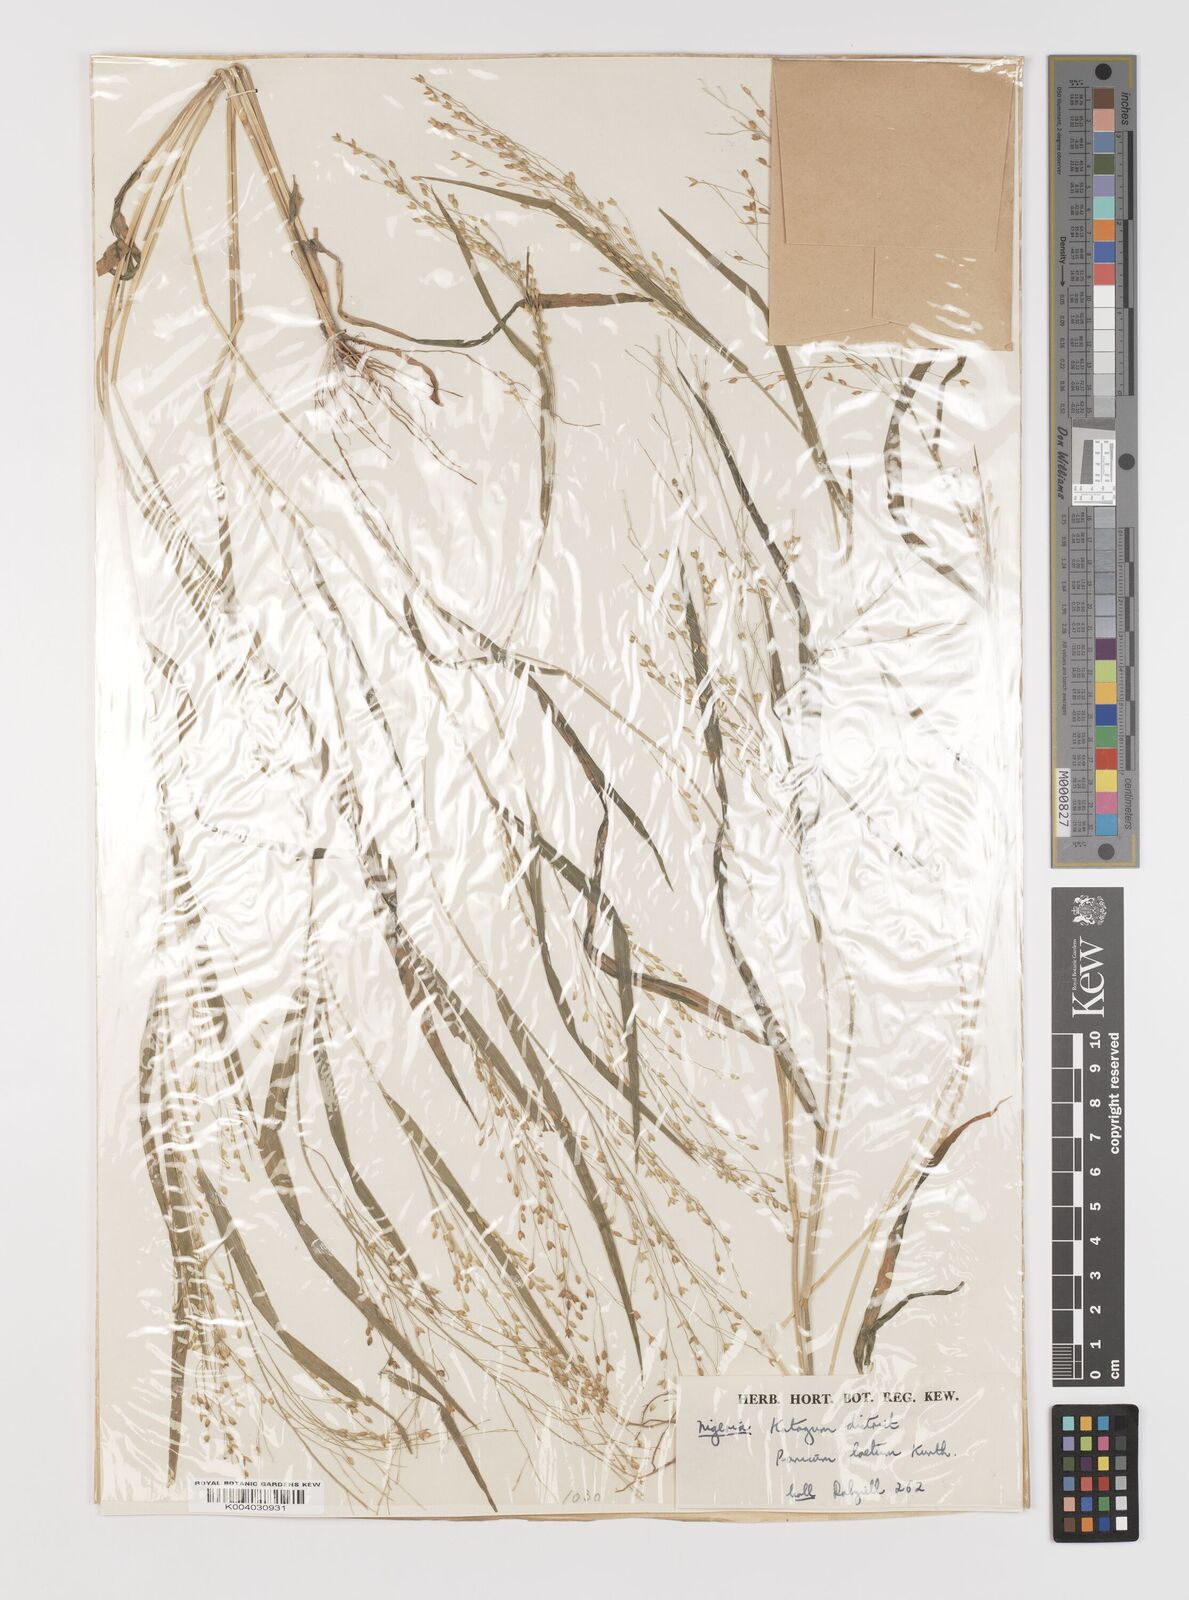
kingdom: Plantae
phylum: Tracheophyta
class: Liliopsida
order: Poales
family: Poaceae
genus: Panicum
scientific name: Panicum laetum
